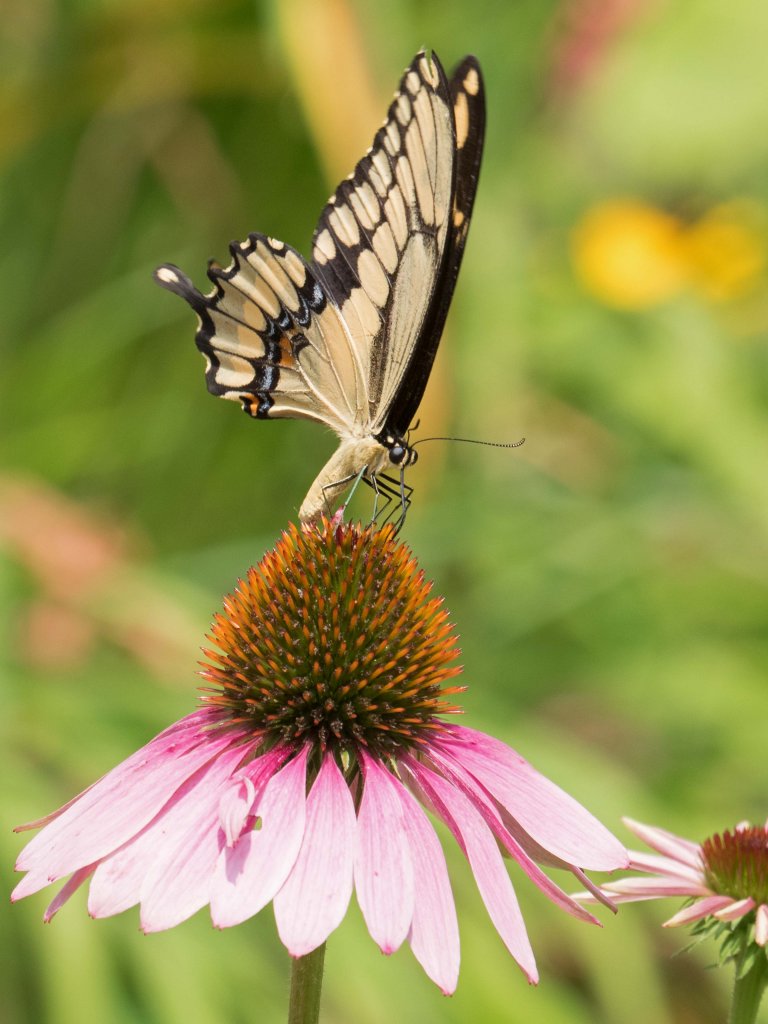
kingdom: Animalia
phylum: Arthropoda
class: Insecta
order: Lepidoptera
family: Papilionidae
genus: Papilio
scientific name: Papilio cresphontes
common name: Eastern Giant Swallowtail
